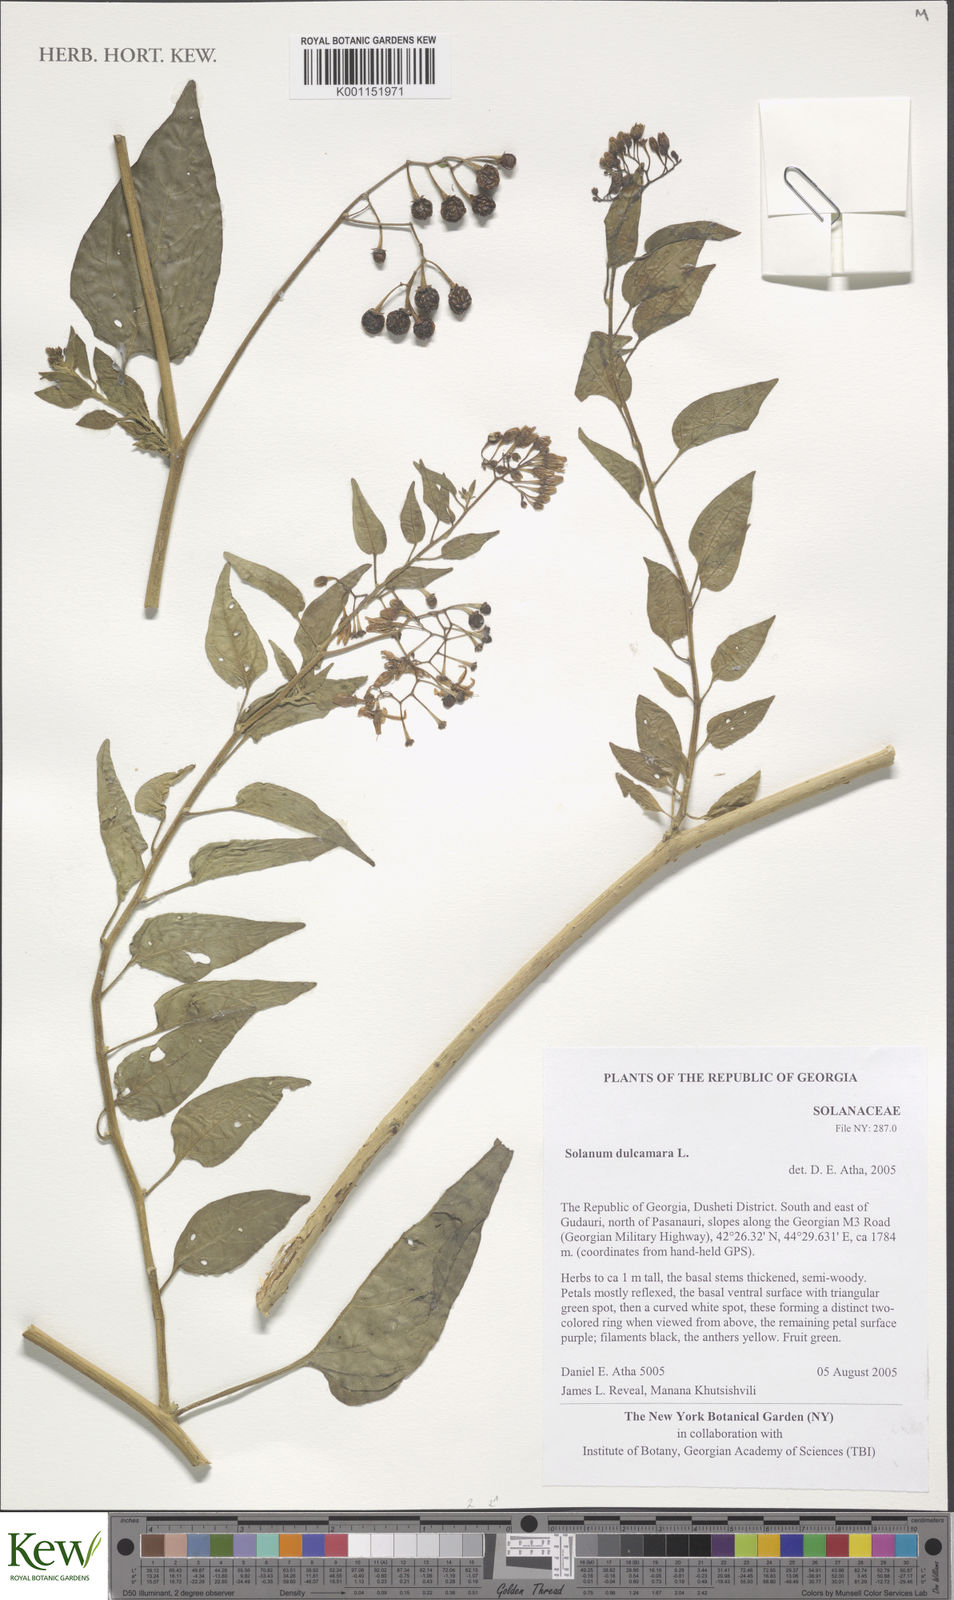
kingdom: Plantae
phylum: Tracheophyta
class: Magnoliopsida
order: Solanales
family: Solanaceae
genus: Solanum
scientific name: Solanum dulcamara
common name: Climbing nightshade
